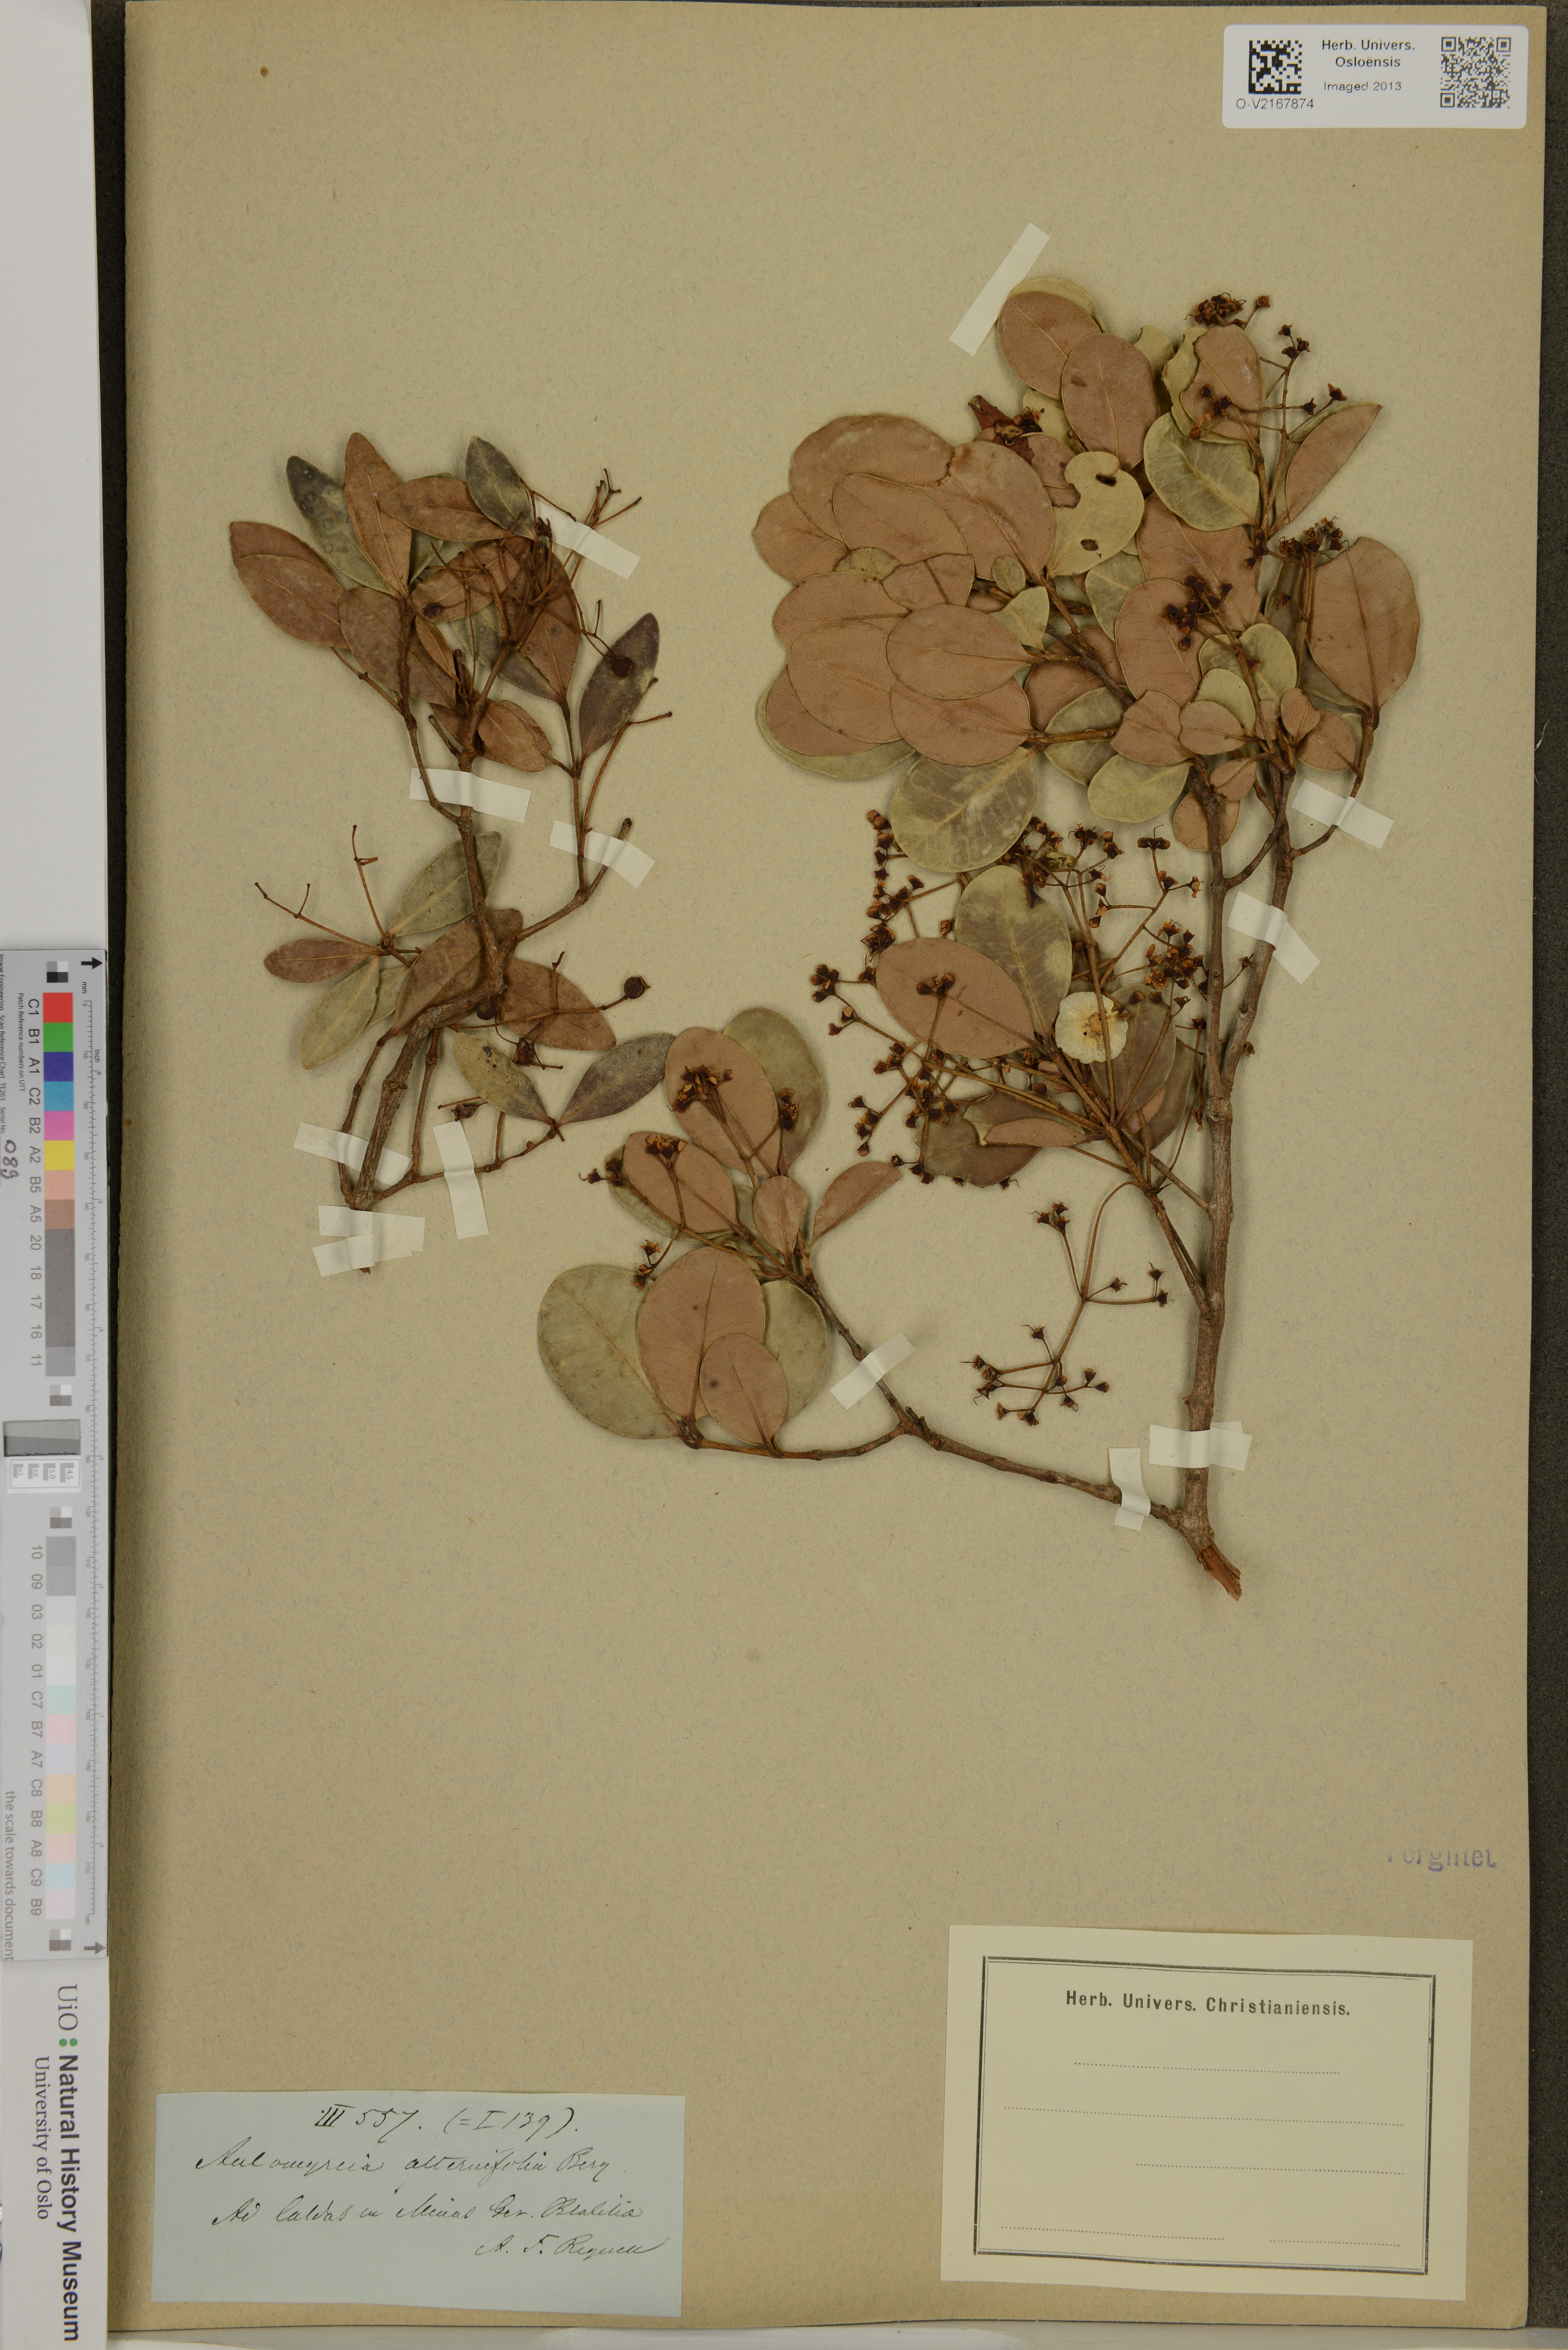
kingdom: Plantae
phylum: Tracheophyta
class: Magnoliopsida
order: Myrtales
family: Myrtaceae
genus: Myrcia
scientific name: Myrcia guianensis
